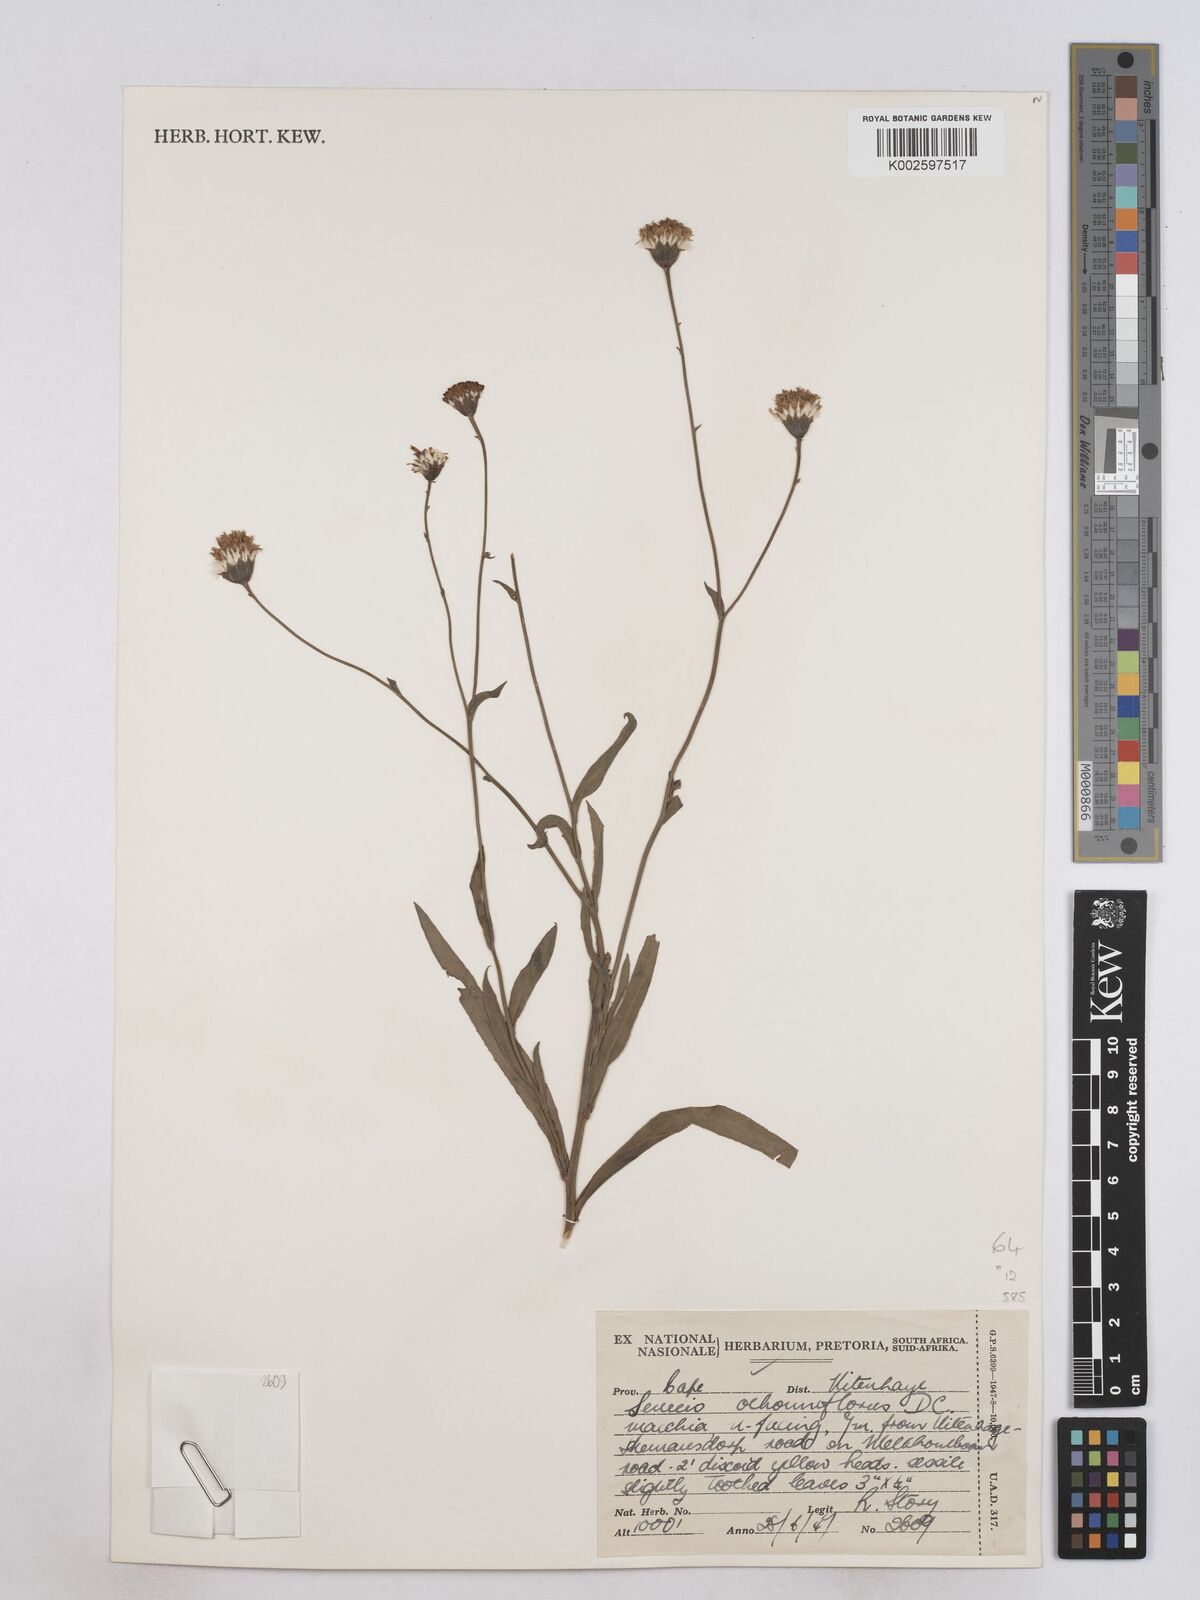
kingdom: Plantae
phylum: Tracheophyta
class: Magnoliopsida
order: Asterales
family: Asteraceae
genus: Senecio
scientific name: Senecio othonniflorus
